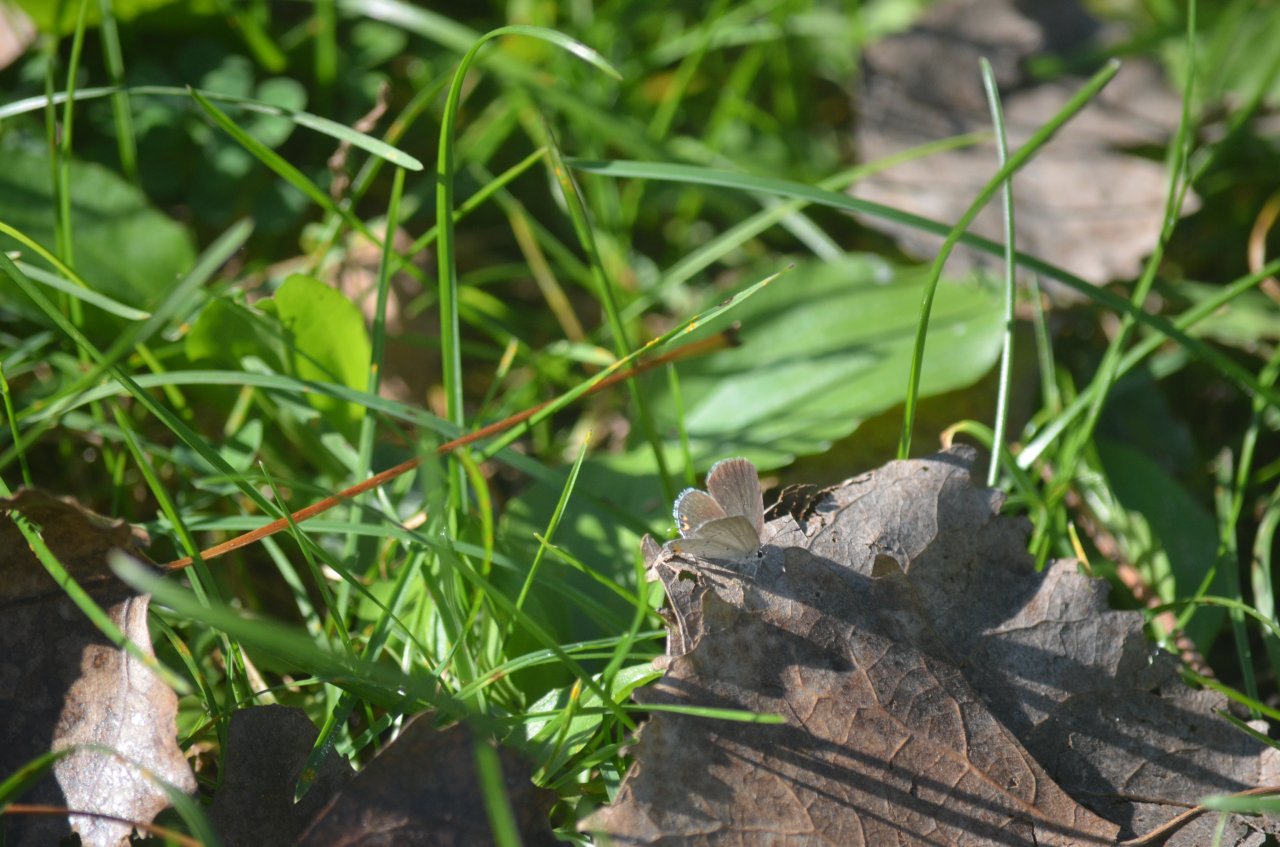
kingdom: Animalia
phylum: Arthropoda
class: Insecta
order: Lepidoptera
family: Lycaenidae
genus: Elkalyce
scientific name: Elkalyce comyntas
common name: Eastern Tailed-Blue
